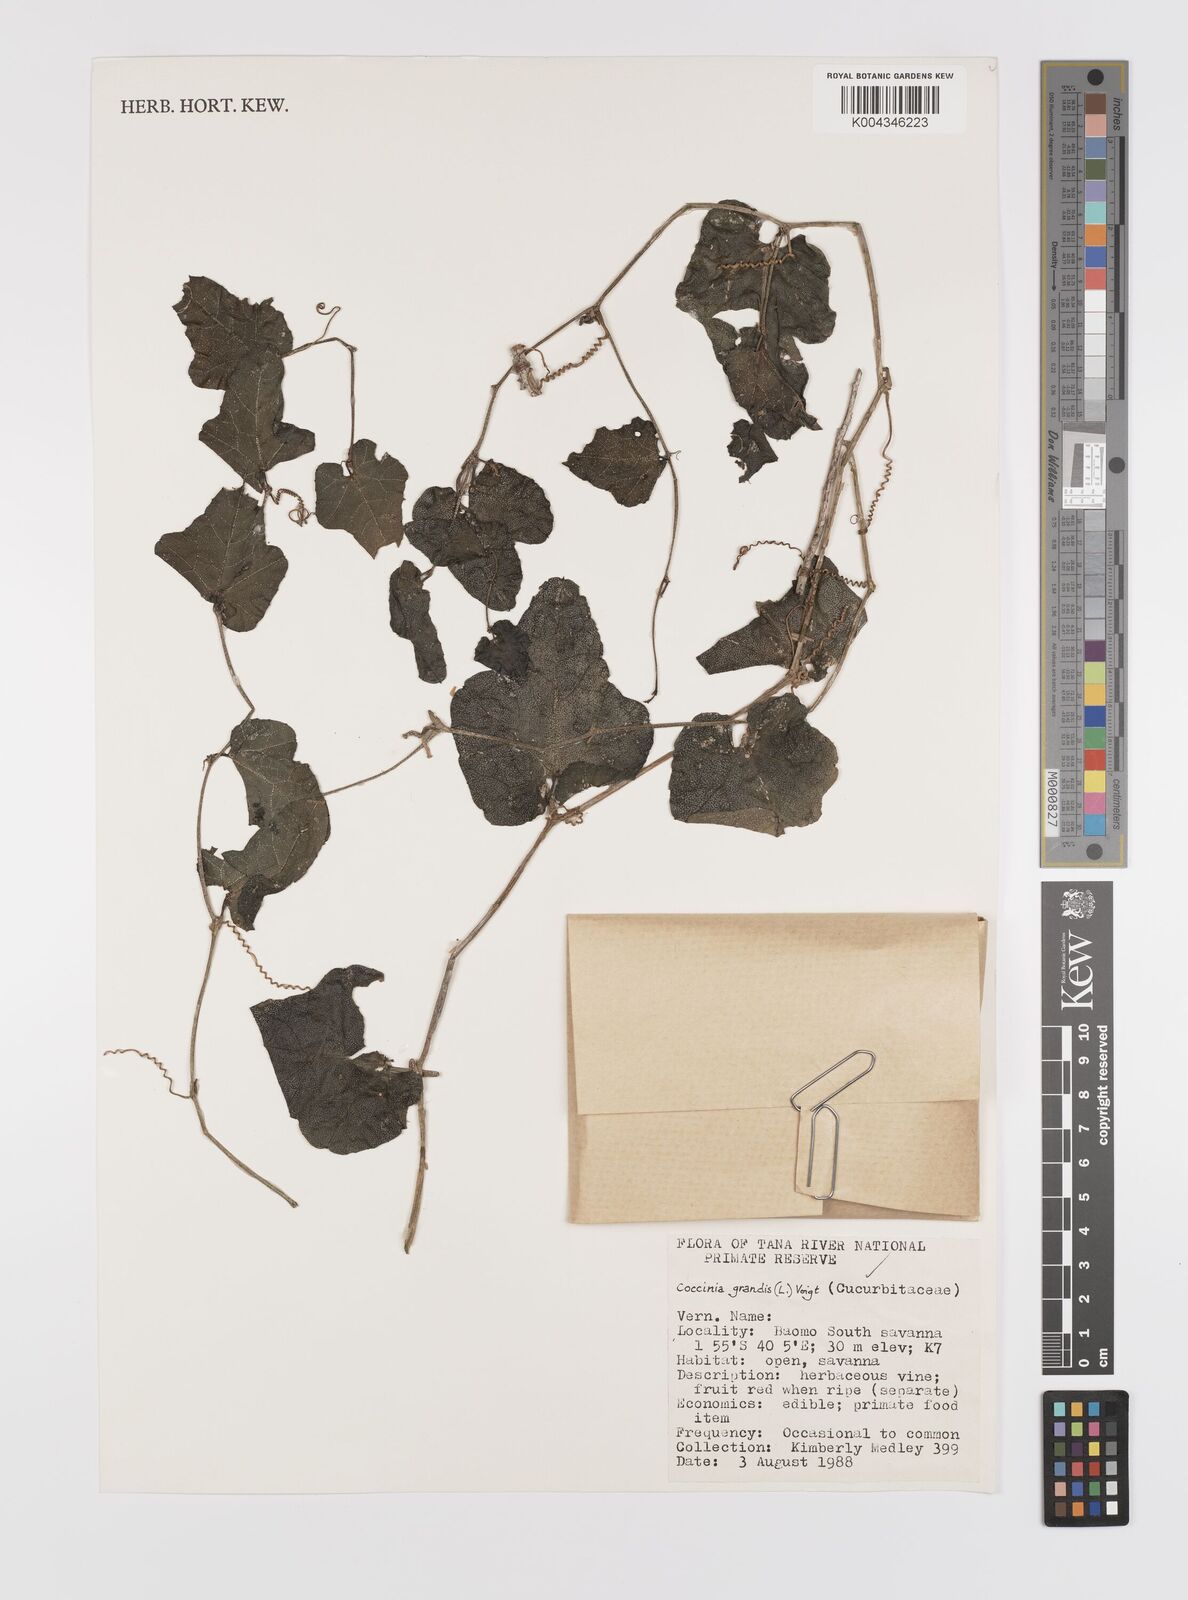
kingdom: Plantae
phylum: Tracheophyta
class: Magnoliopsida
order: Cucurbitales
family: Cucurbitaceae
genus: Coccinia
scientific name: Coccinia grandis
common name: Ivy gourd
